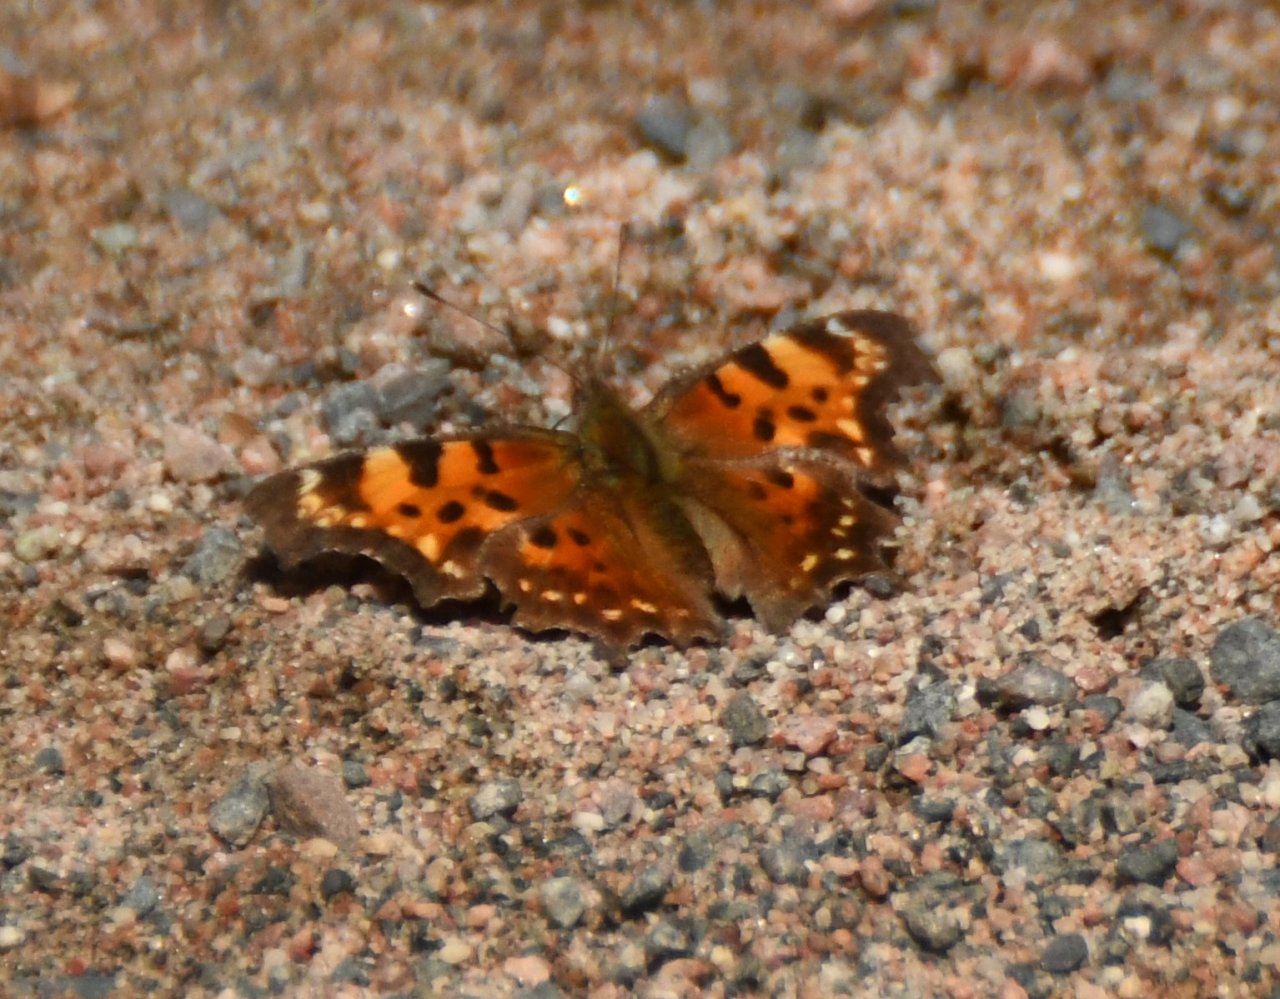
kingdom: Animalia
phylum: Arthropoda
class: Insecta
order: Lepidoptera
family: Nymphalidae
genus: Polygonia
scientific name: Polygonia faunus
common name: Green Comma
